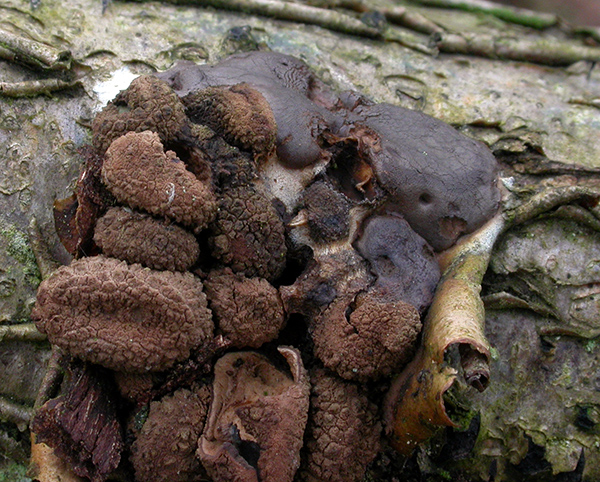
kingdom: Protozoa
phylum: Mycetozoa
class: Myxomycetes
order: Trichiales
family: Dictydiaethaliaceae
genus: Dictydiaethalium
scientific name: Dictydiaethalium plumbeum
